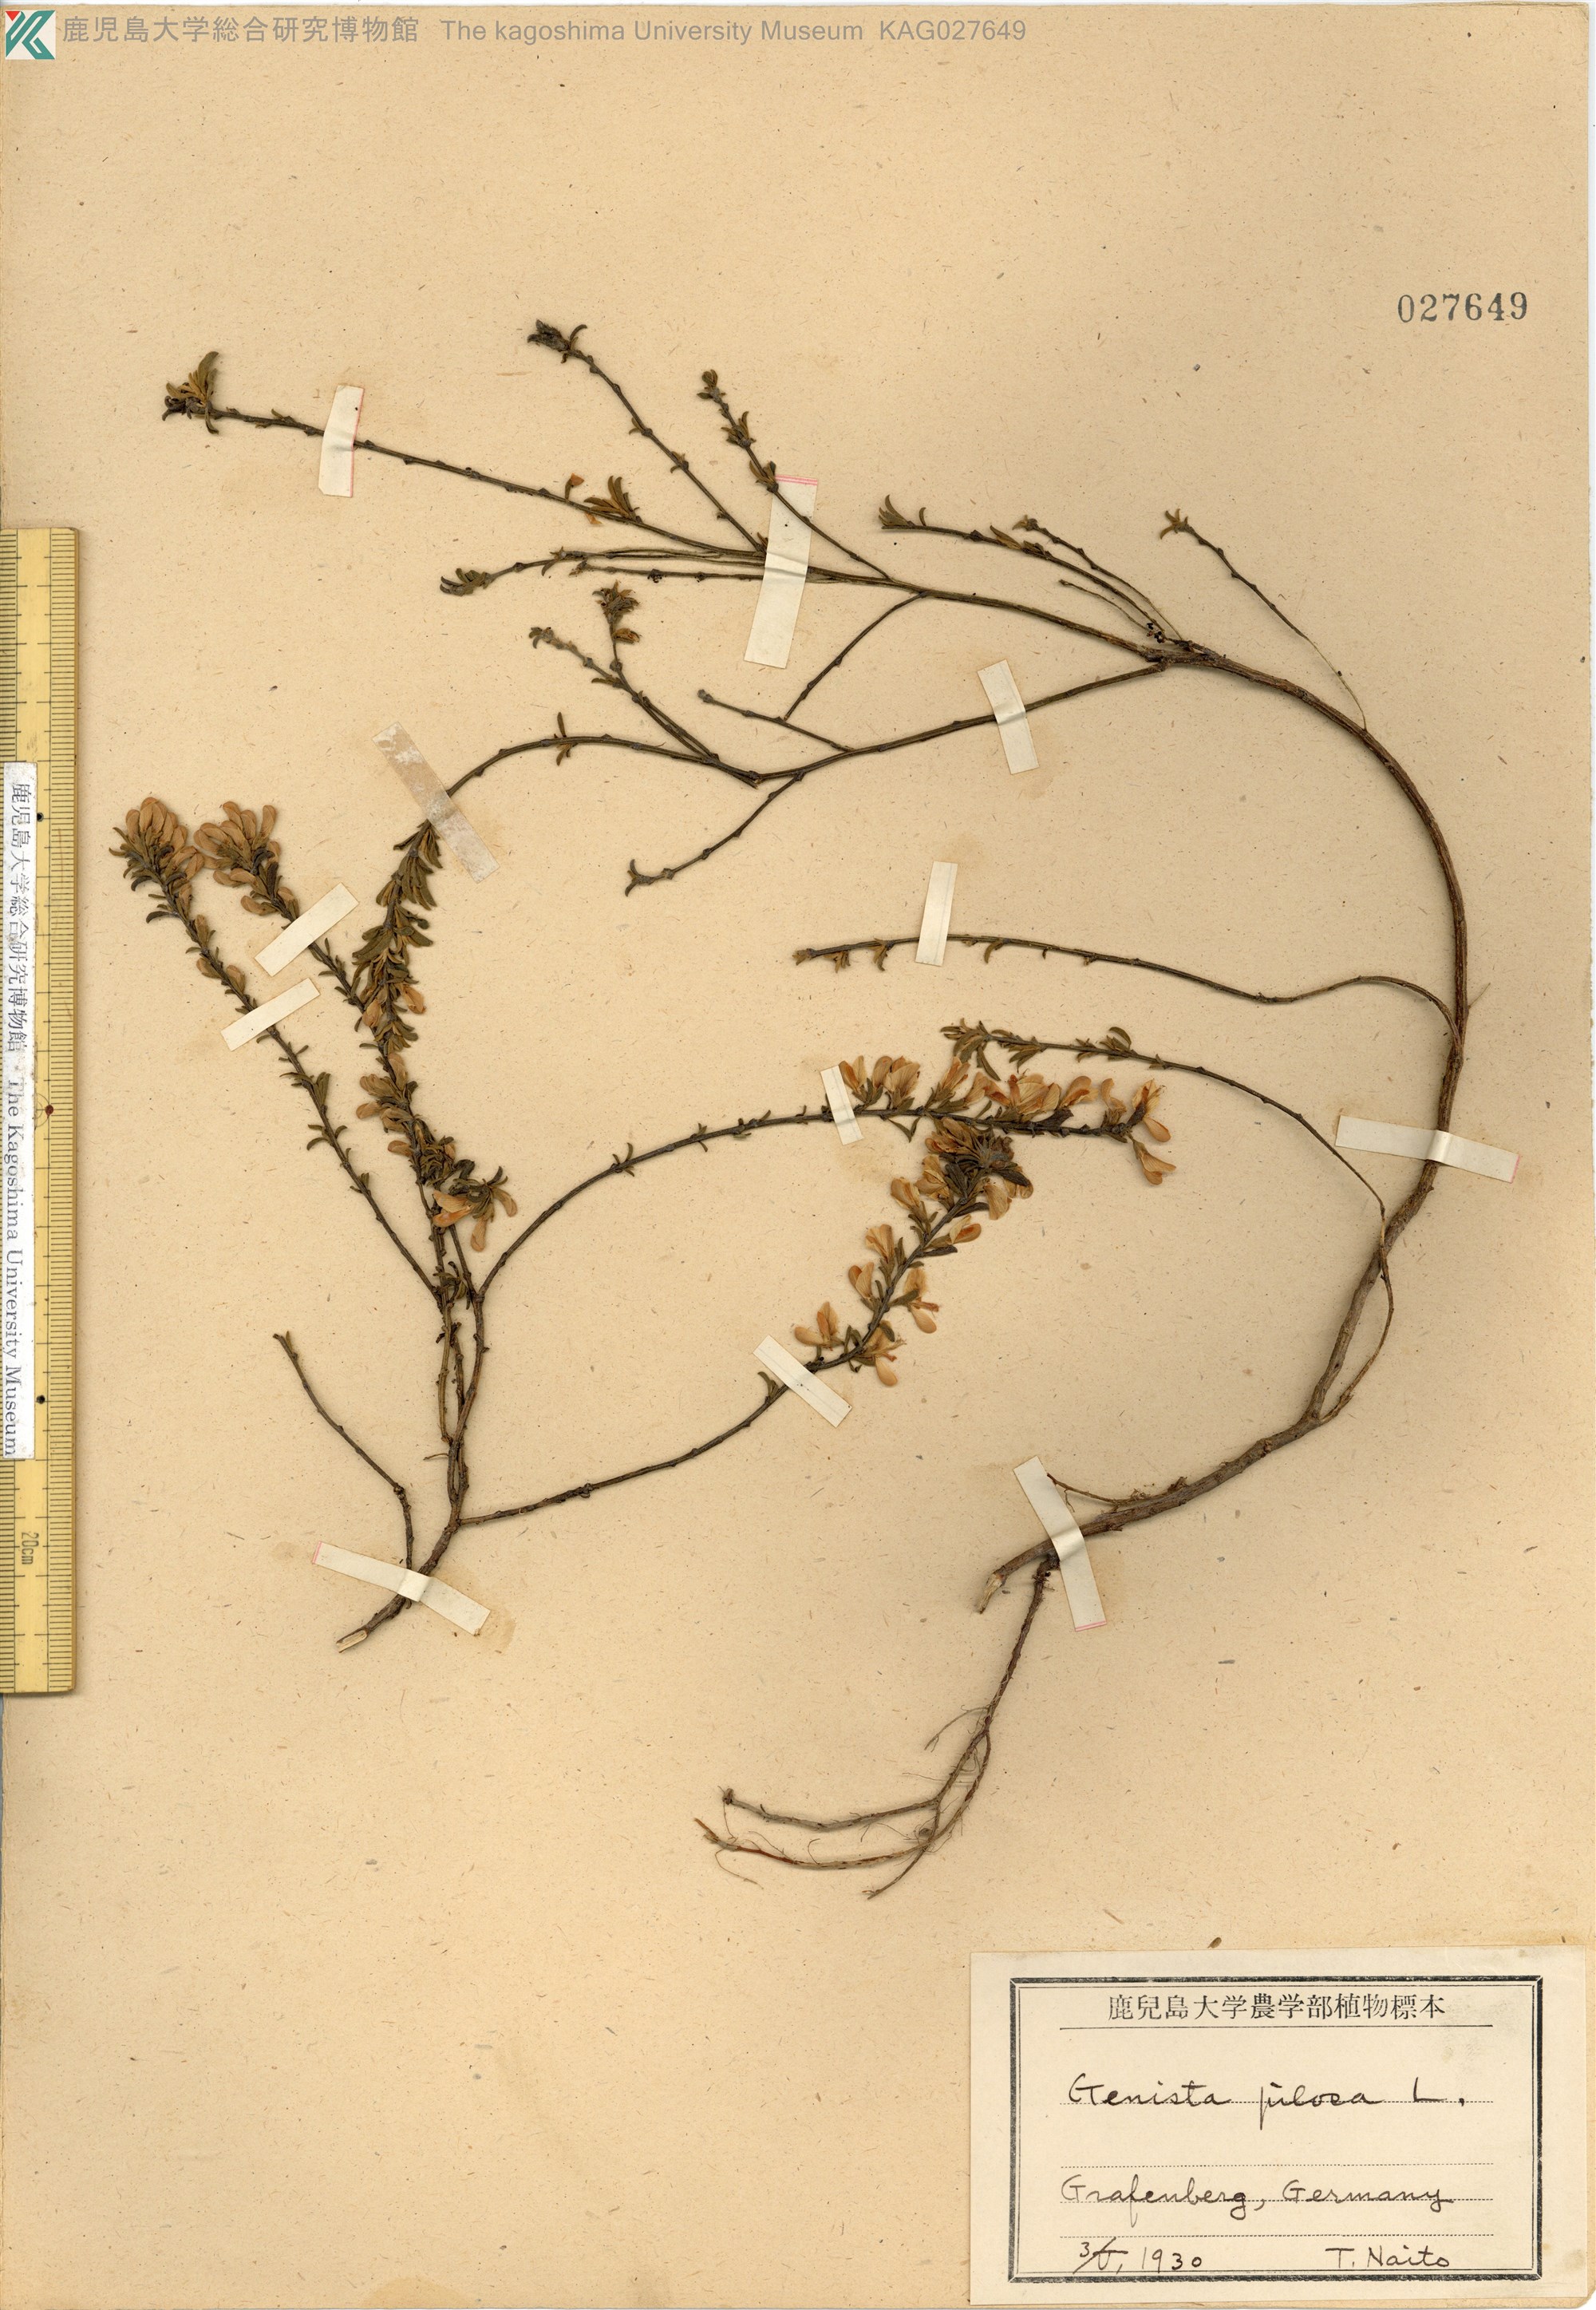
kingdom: Plantae
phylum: Tracheophyta
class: Magnoliopsida
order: Fabales
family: Fabaceae
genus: Genista
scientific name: Genista pilosa
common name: Hairy greenweed
